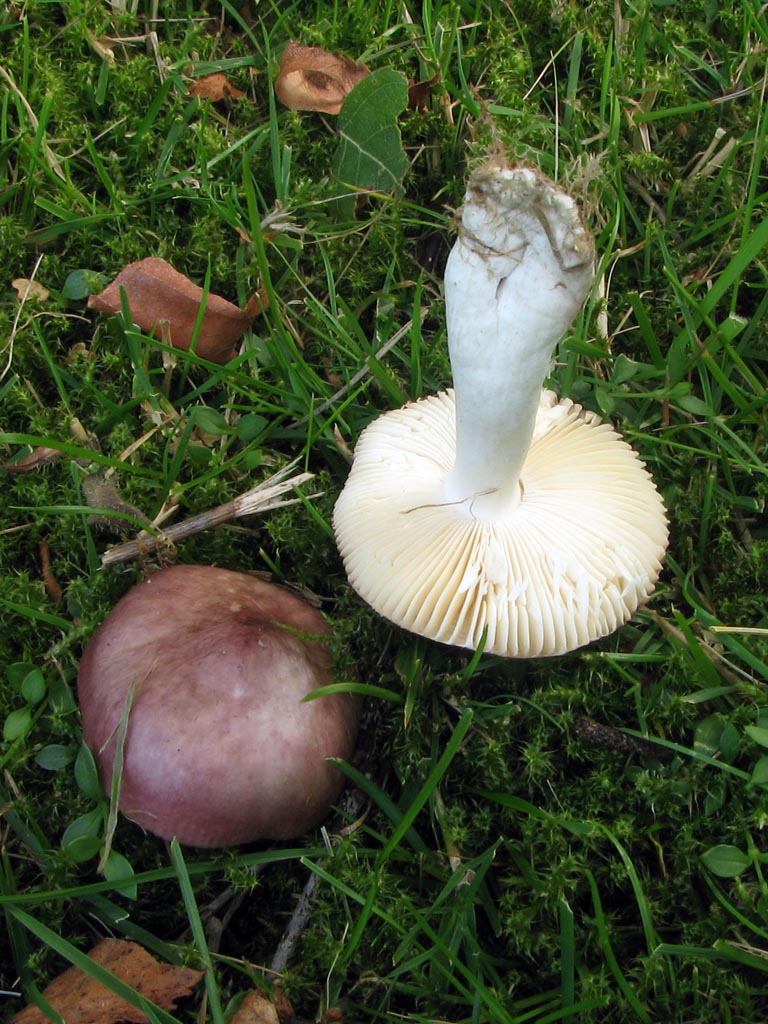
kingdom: Fungi
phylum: Basidiomycota
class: Agaricomycetes
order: Russulales
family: Russulaceae
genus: Russula
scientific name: Russula nitida
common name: året skørhat
